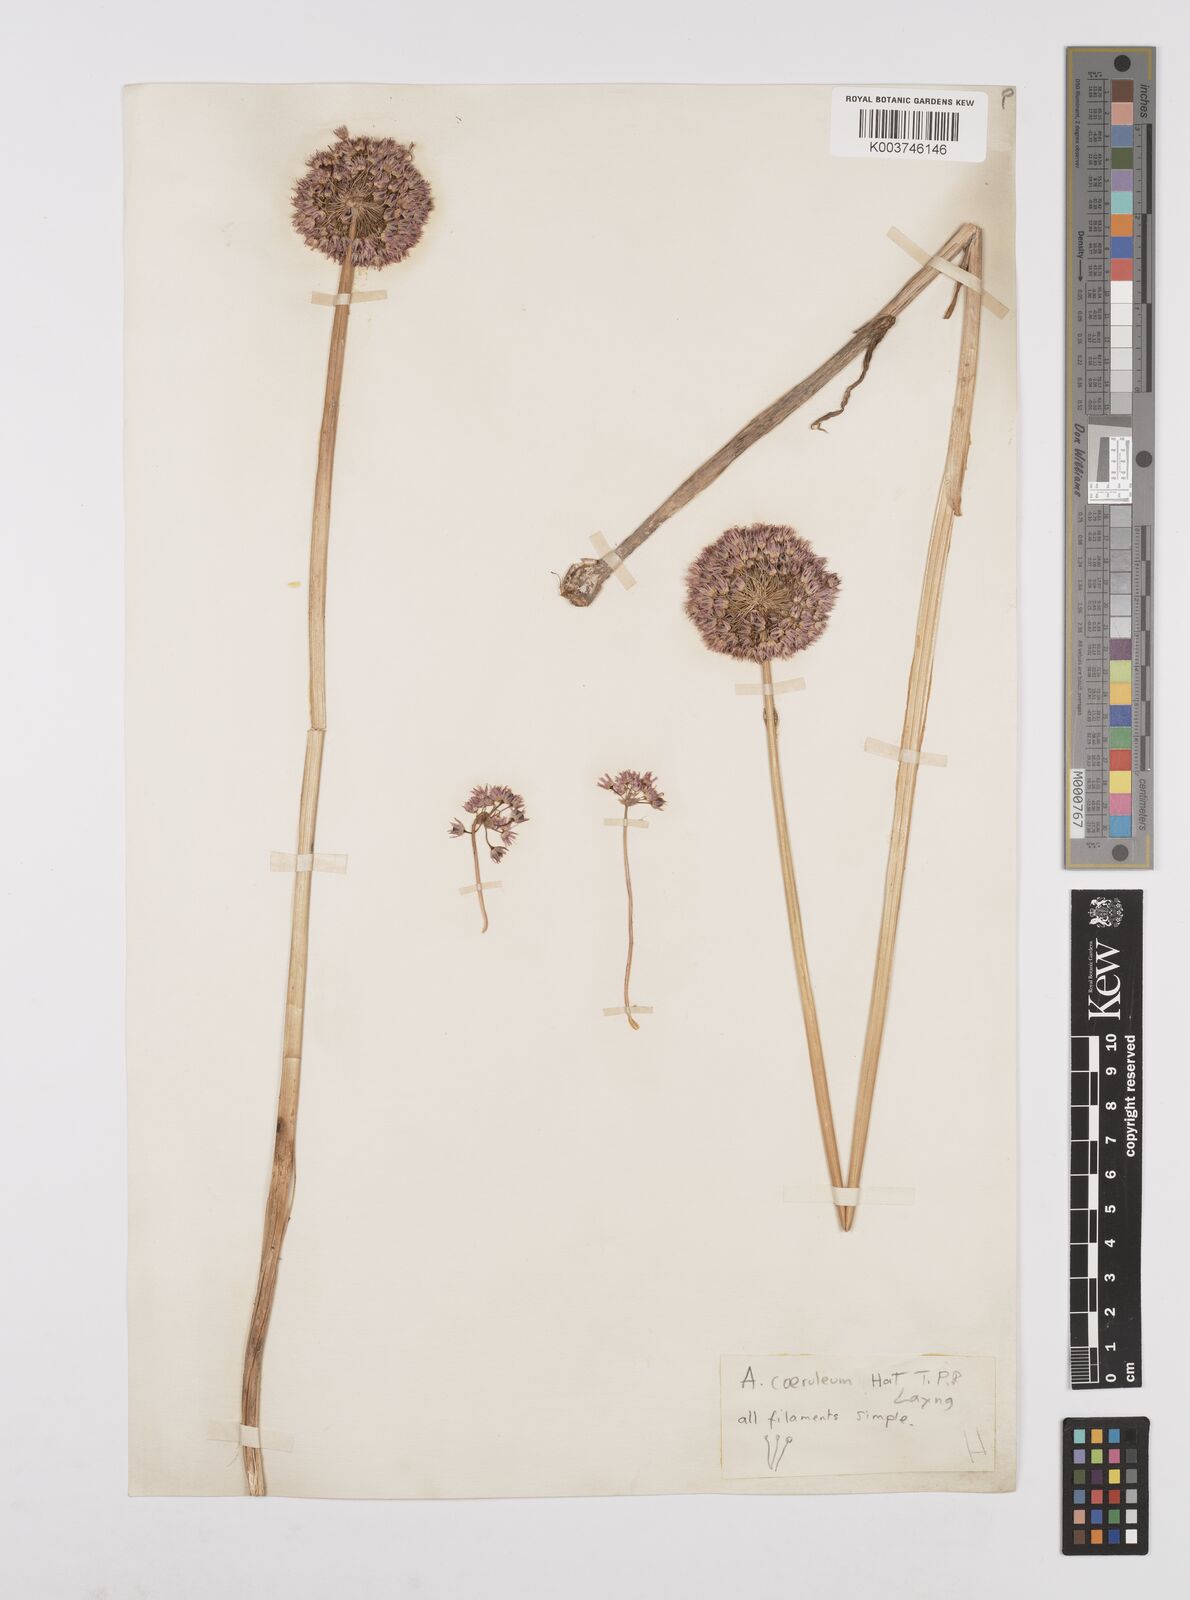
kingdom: Plantae
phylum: Tracheophyta
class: Liliopsida
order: Asparagales
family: Amaryllidaceae
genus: Allium
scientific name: Allium caeruleum
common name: Blue-of-the-heavens
